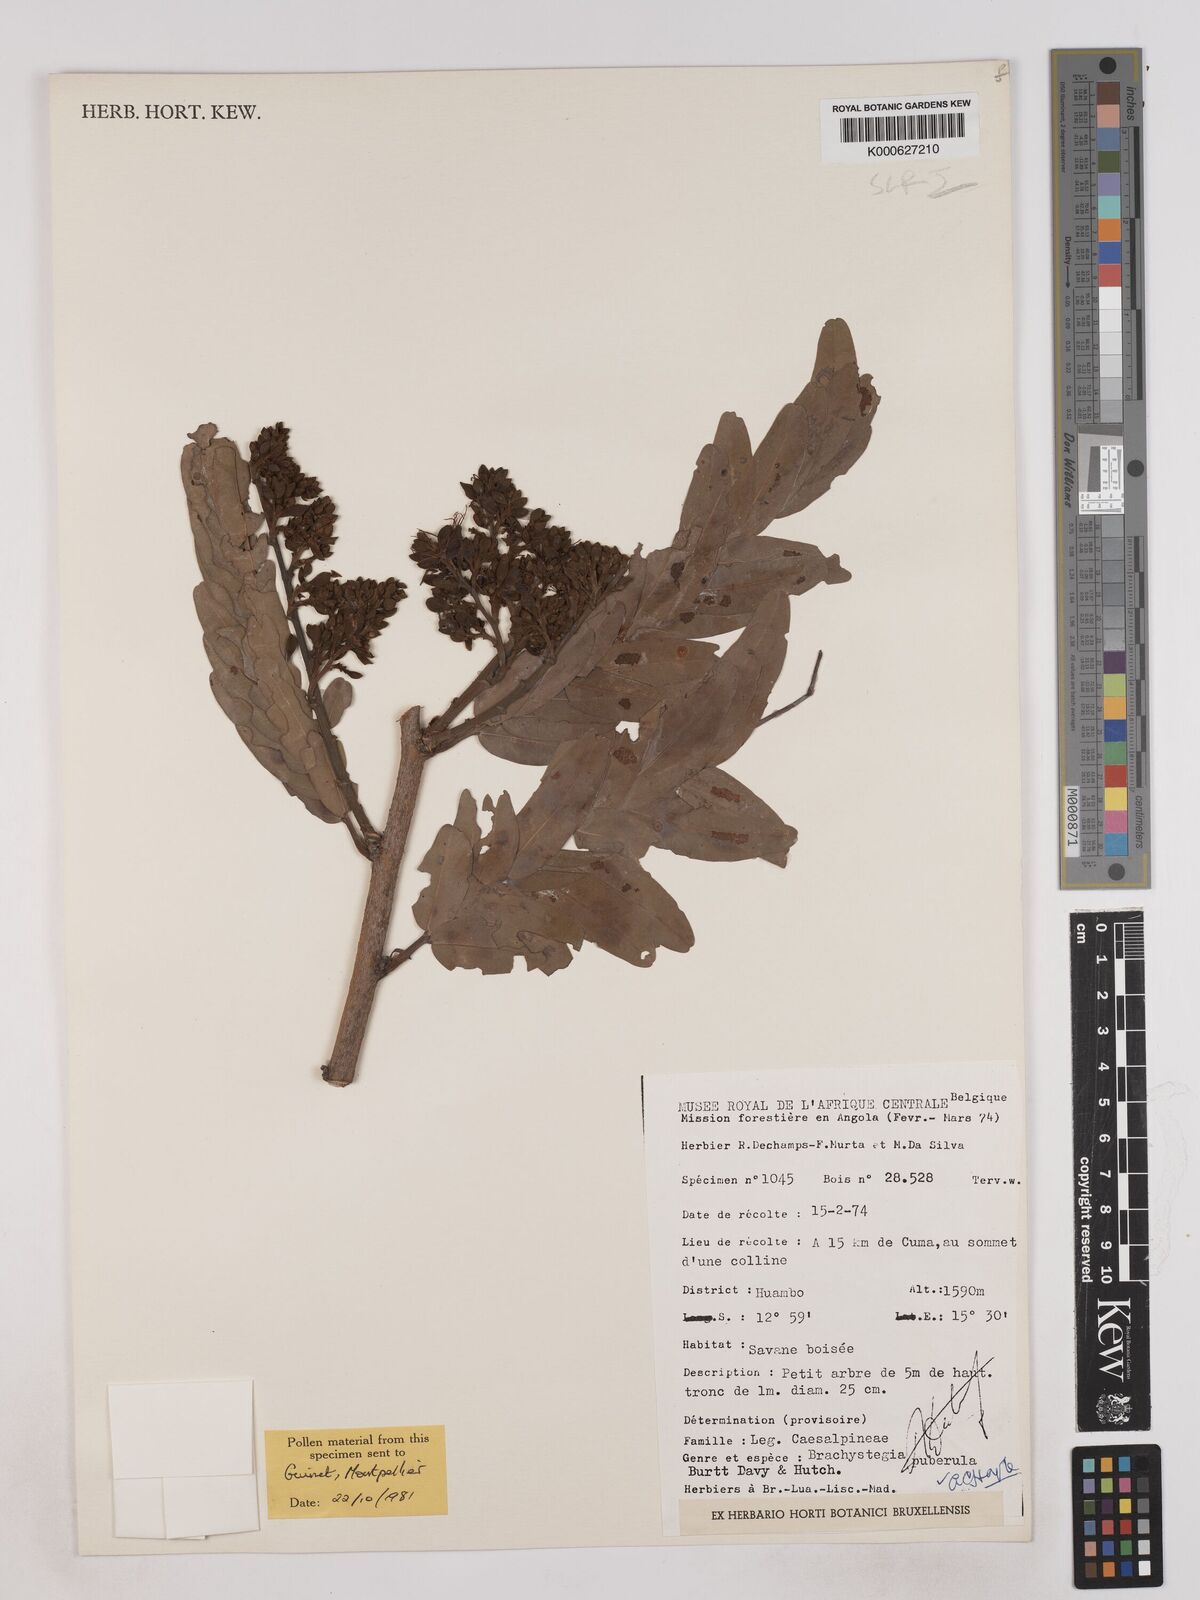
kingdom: Plantae
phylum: Tracheophyta
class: Magnoliopsida
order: Fabales
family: Fabaceae
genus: Brachystegia
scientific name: Brachystegia puberula
